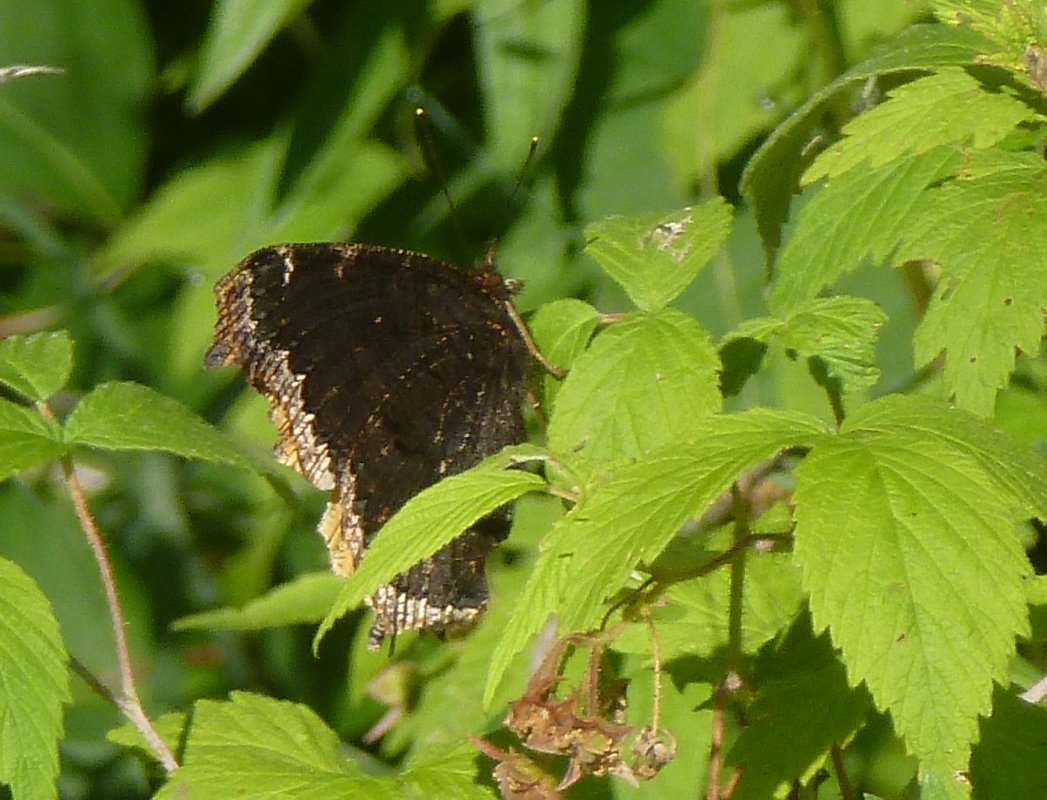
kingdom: Animalia
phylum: Arthropoda
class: Insecta
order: Lepidoptera
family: Nymphalidae
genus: Nymphalis
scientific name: Nymphalis antiopa
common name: Mourning Cloak
